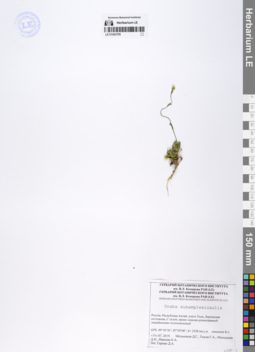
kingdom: Plantae
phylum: Tracheophyta
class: Magnoliopsida
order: Brassicales
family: Brassicaceae
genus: Draba
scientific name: Draba subamplexicaulis
